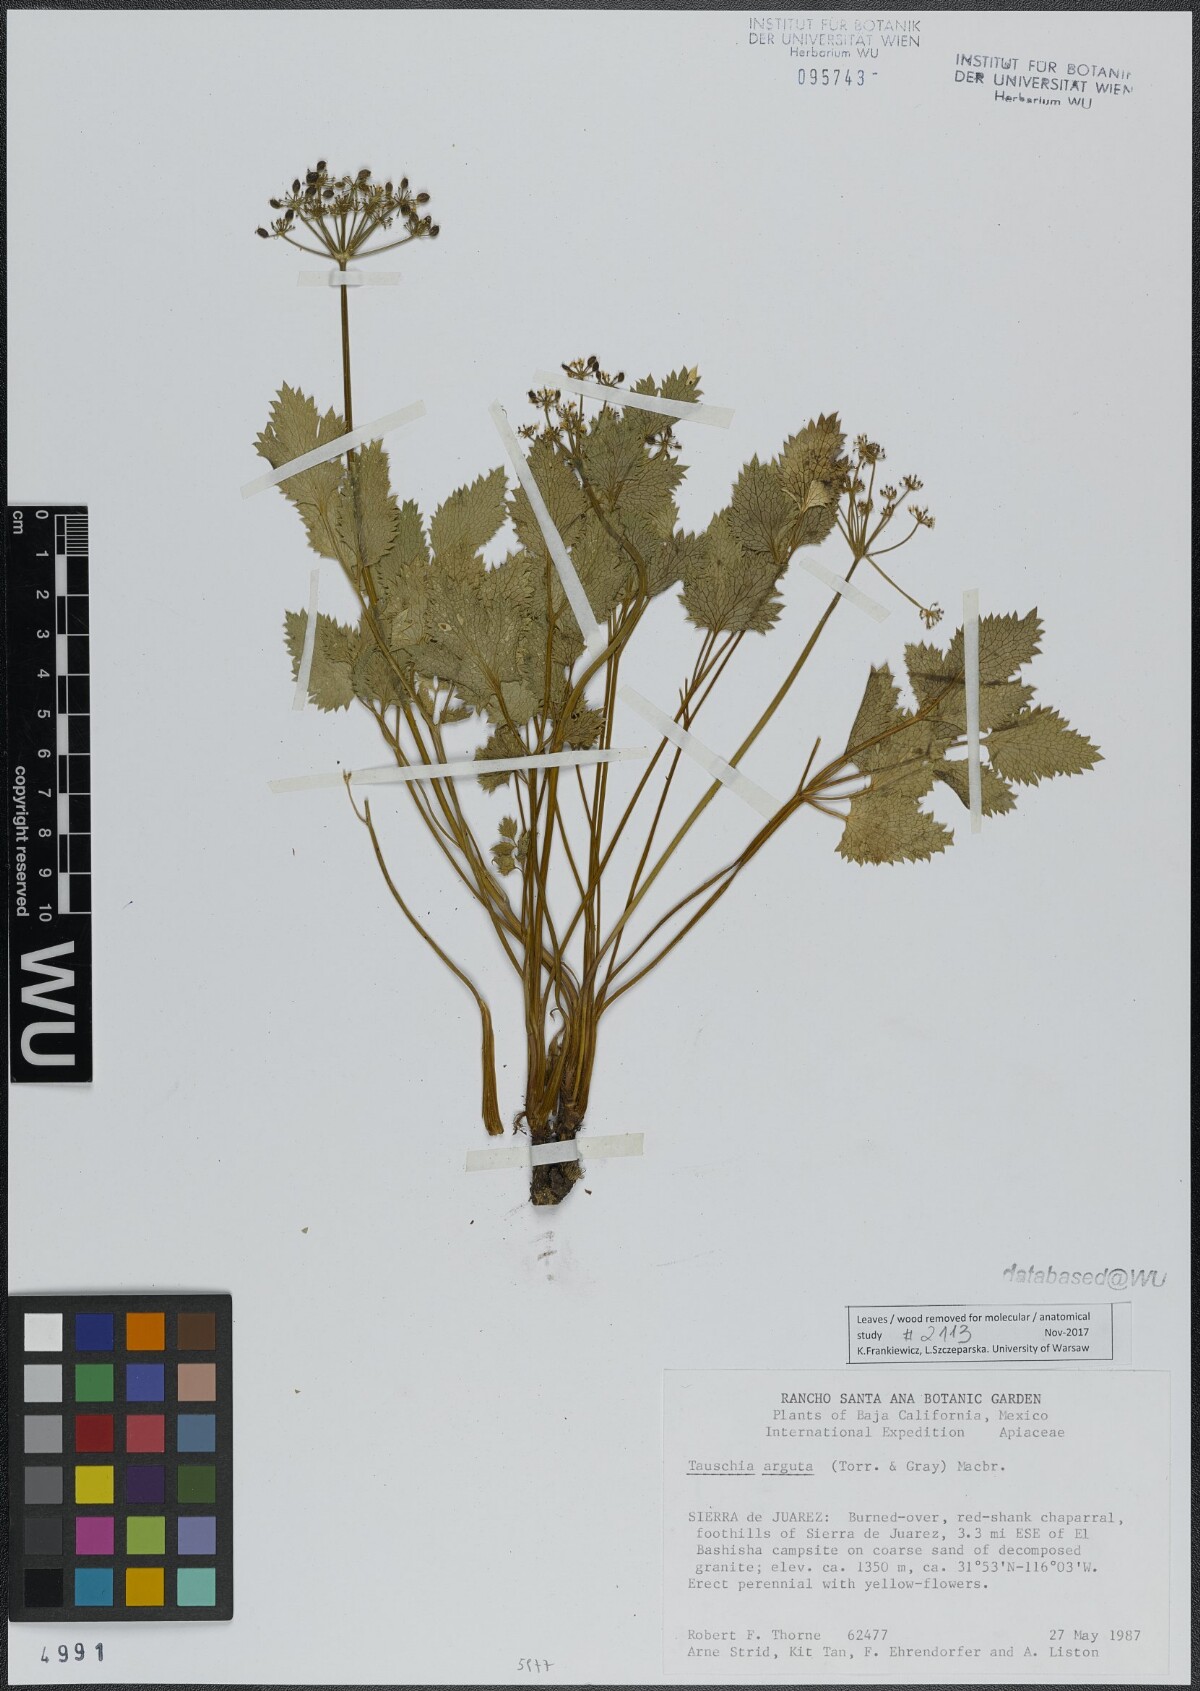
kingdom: Plantae
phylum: Tracheophyta
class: Magnoliopsida
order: Apiales
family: Apiaceae
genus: Tauschia
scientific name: Tauschia arguta
